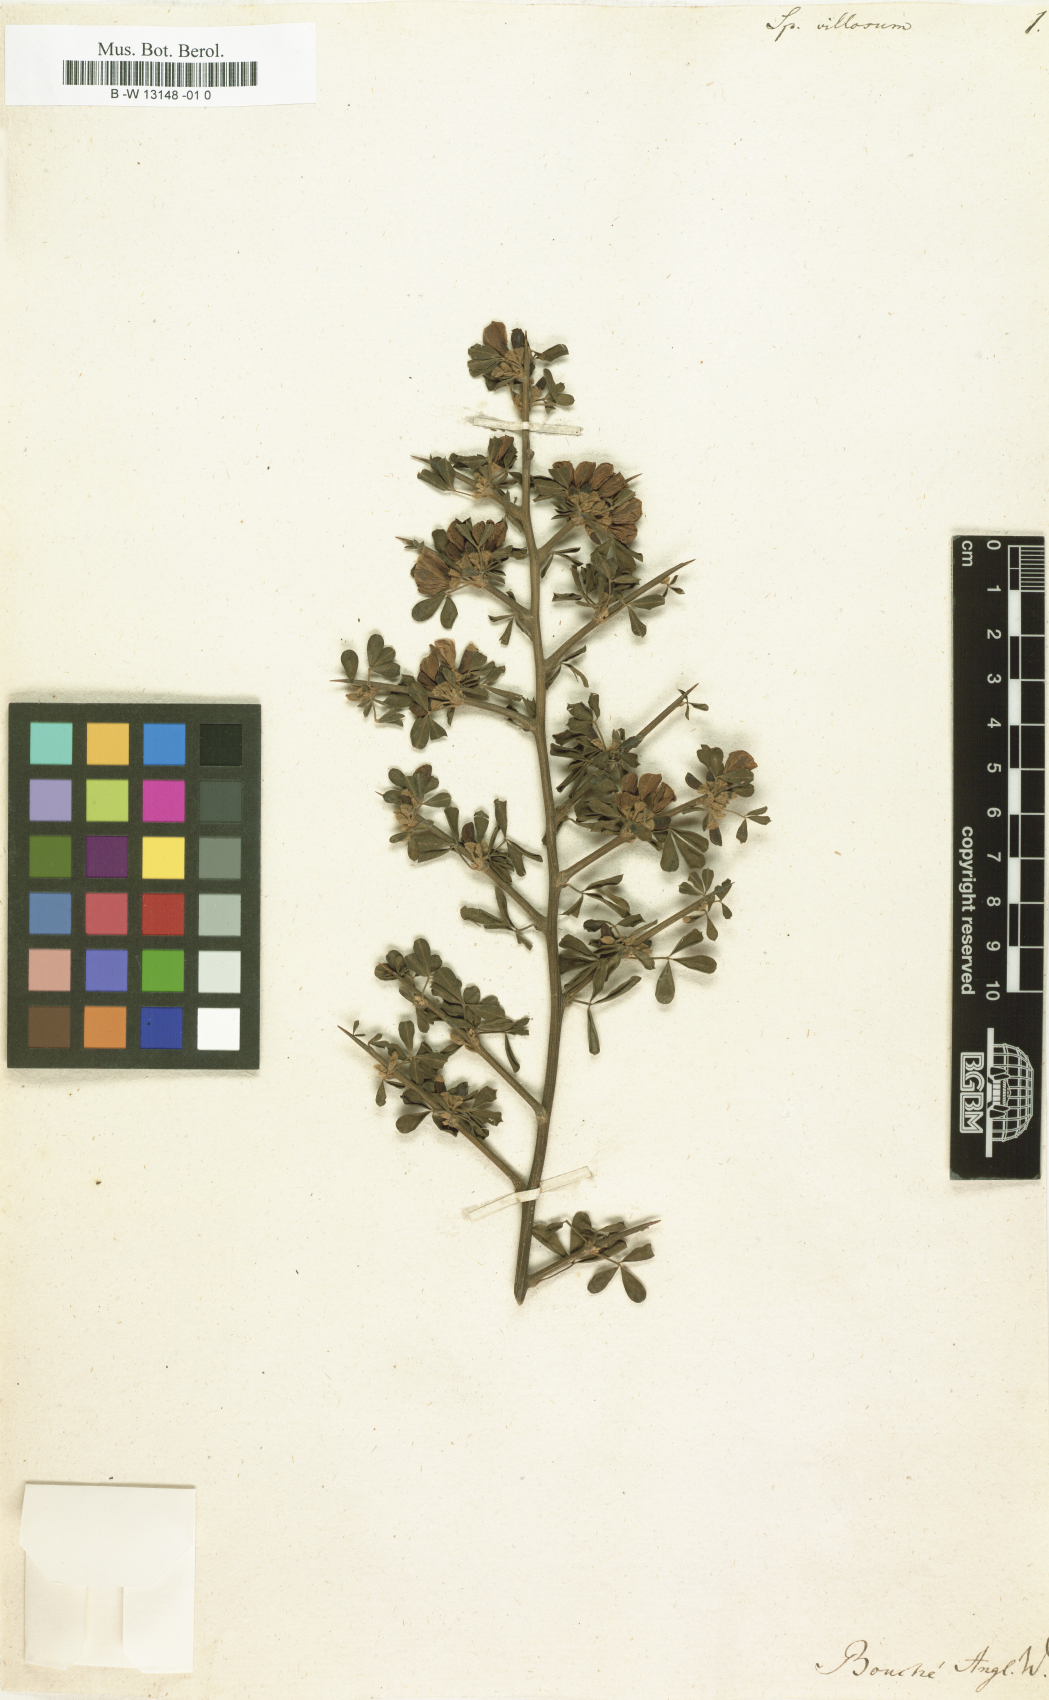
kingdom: Plantae
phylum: Tracheophyta
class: Magnoliopsida
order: Fabales
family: Fabaceae
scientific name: Fabaceae
